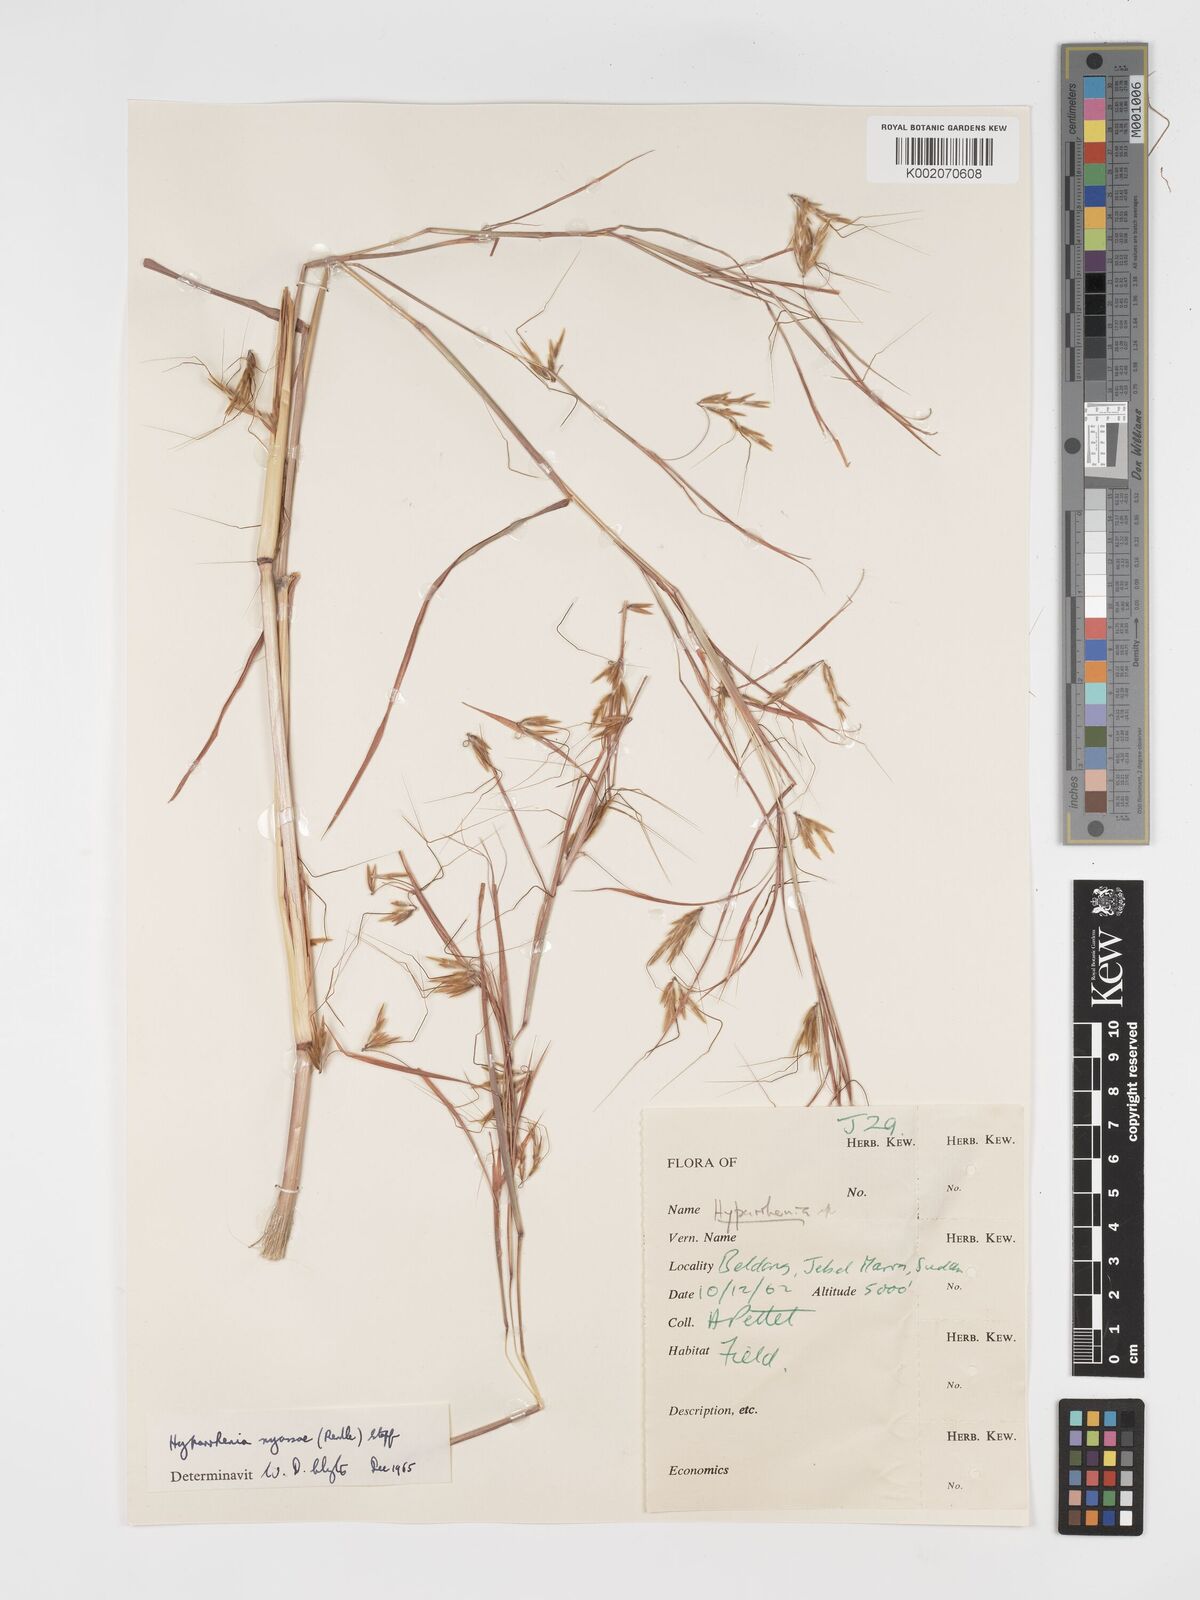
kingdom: Plantae
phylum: Tracheophyta
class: Liliopsida
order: Poales
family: Poaceae
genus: Hyparrhenia
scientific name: Hyparrhenia nyassae
